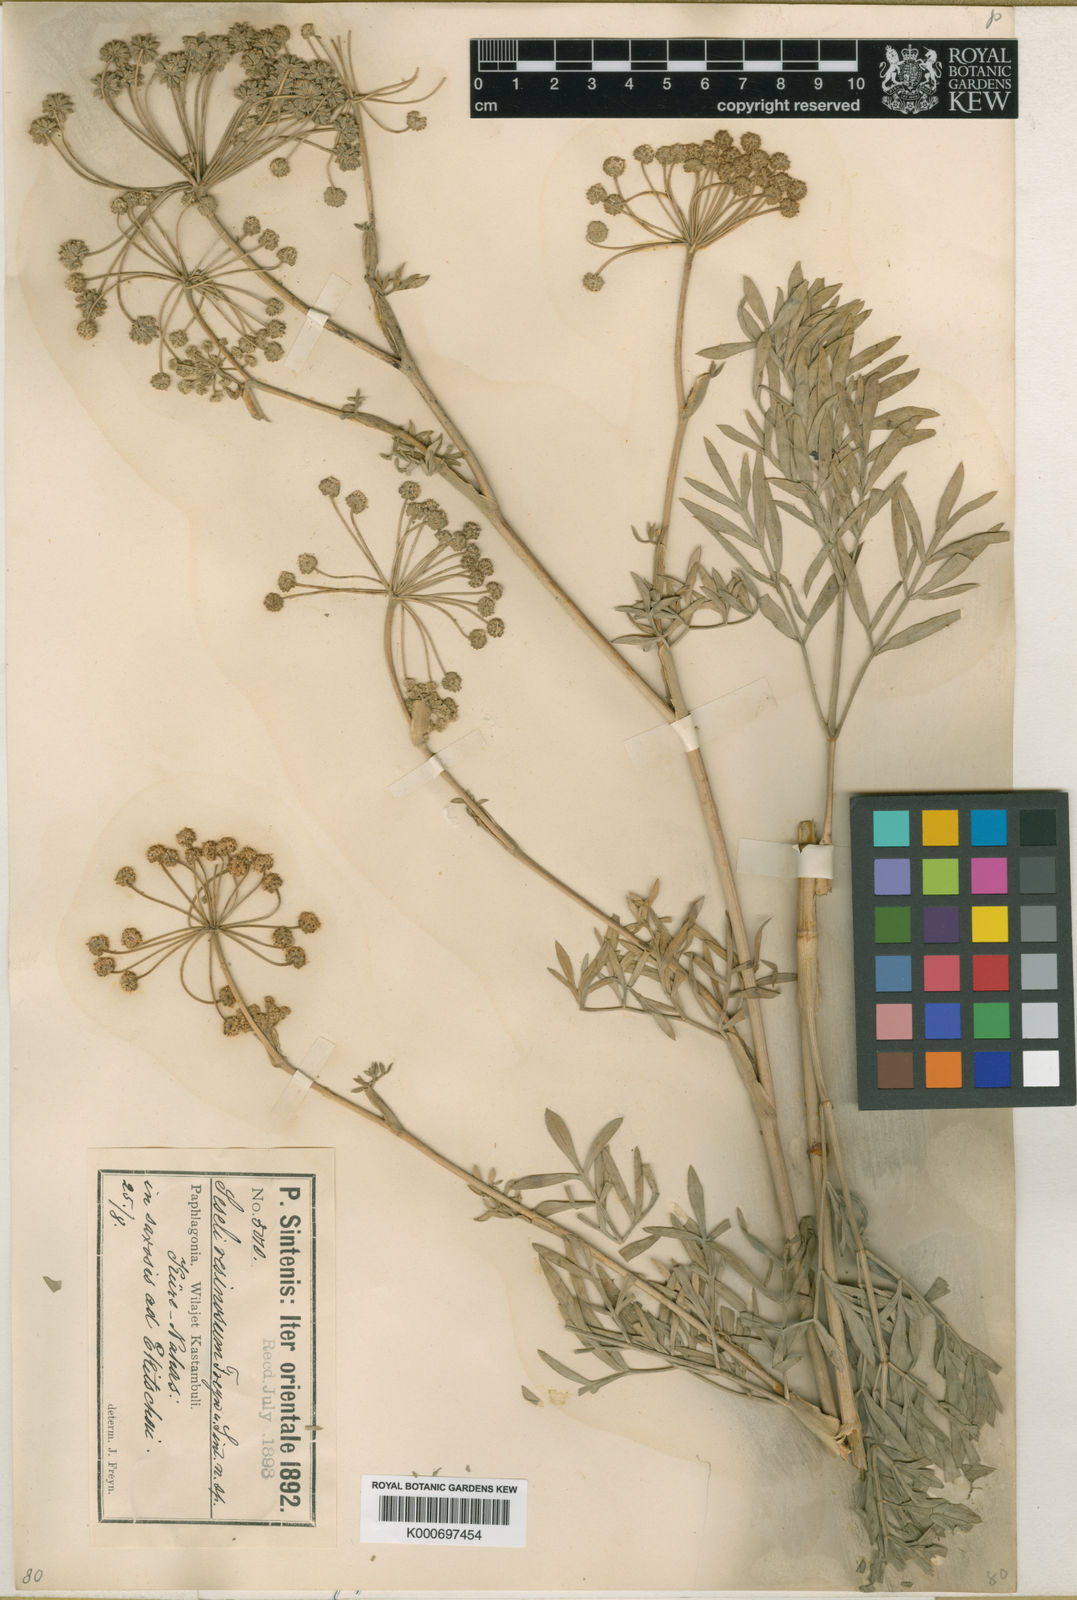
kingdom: Plantae
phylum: Tracheophyta
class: Magnoliopsida
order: Apiales
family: Apiaceae
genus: Seseli
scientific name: Seseli resinosum
